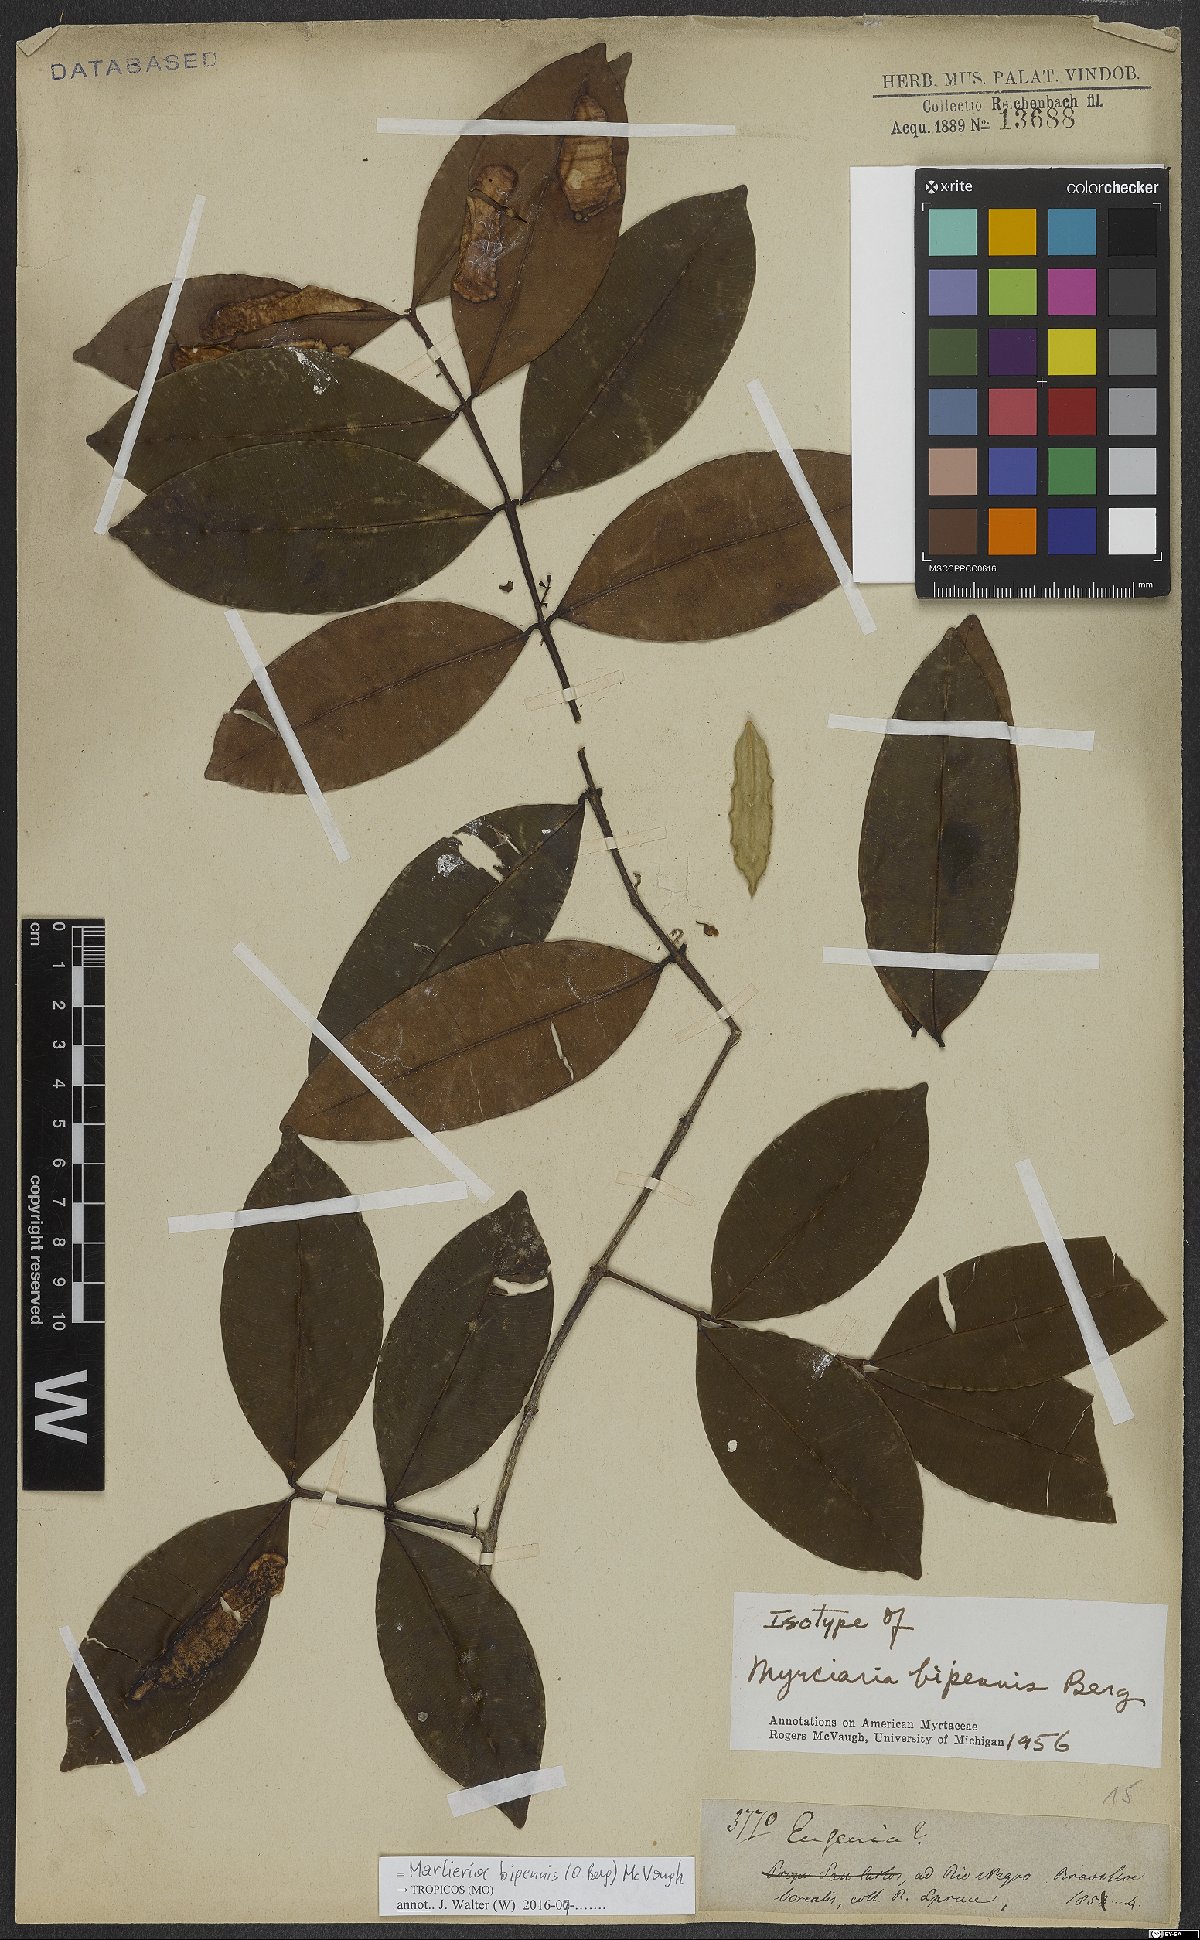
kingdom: Plantae
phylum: Tracheophyta
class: Magnoliopsida
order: Myrtales
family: Myrtaceae
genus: Myrcia
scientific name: Myrcia bipennis
